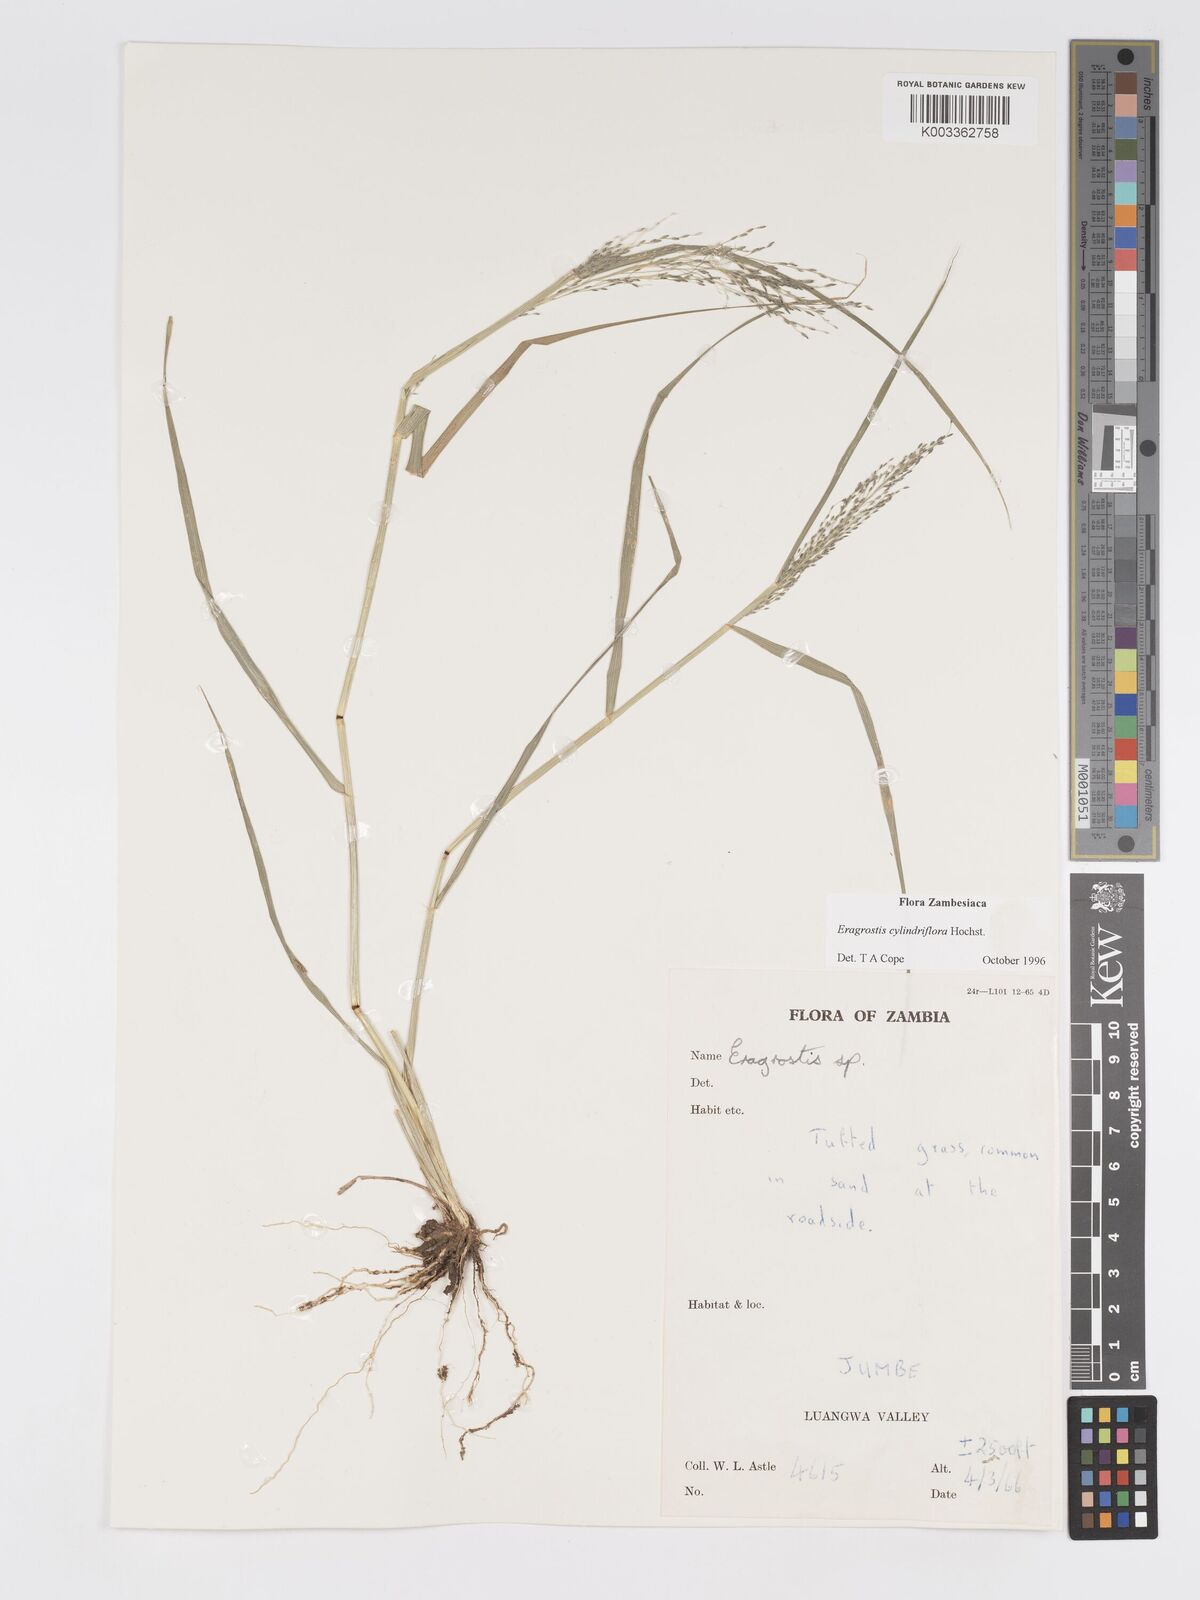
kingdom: Plantae
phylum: Tracheophyta
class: Liliopsida
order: Poales
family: Poaceae
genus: Eragrostis
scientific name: Eragrostis cylindriflora
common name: Cylinderflower lovegrass
